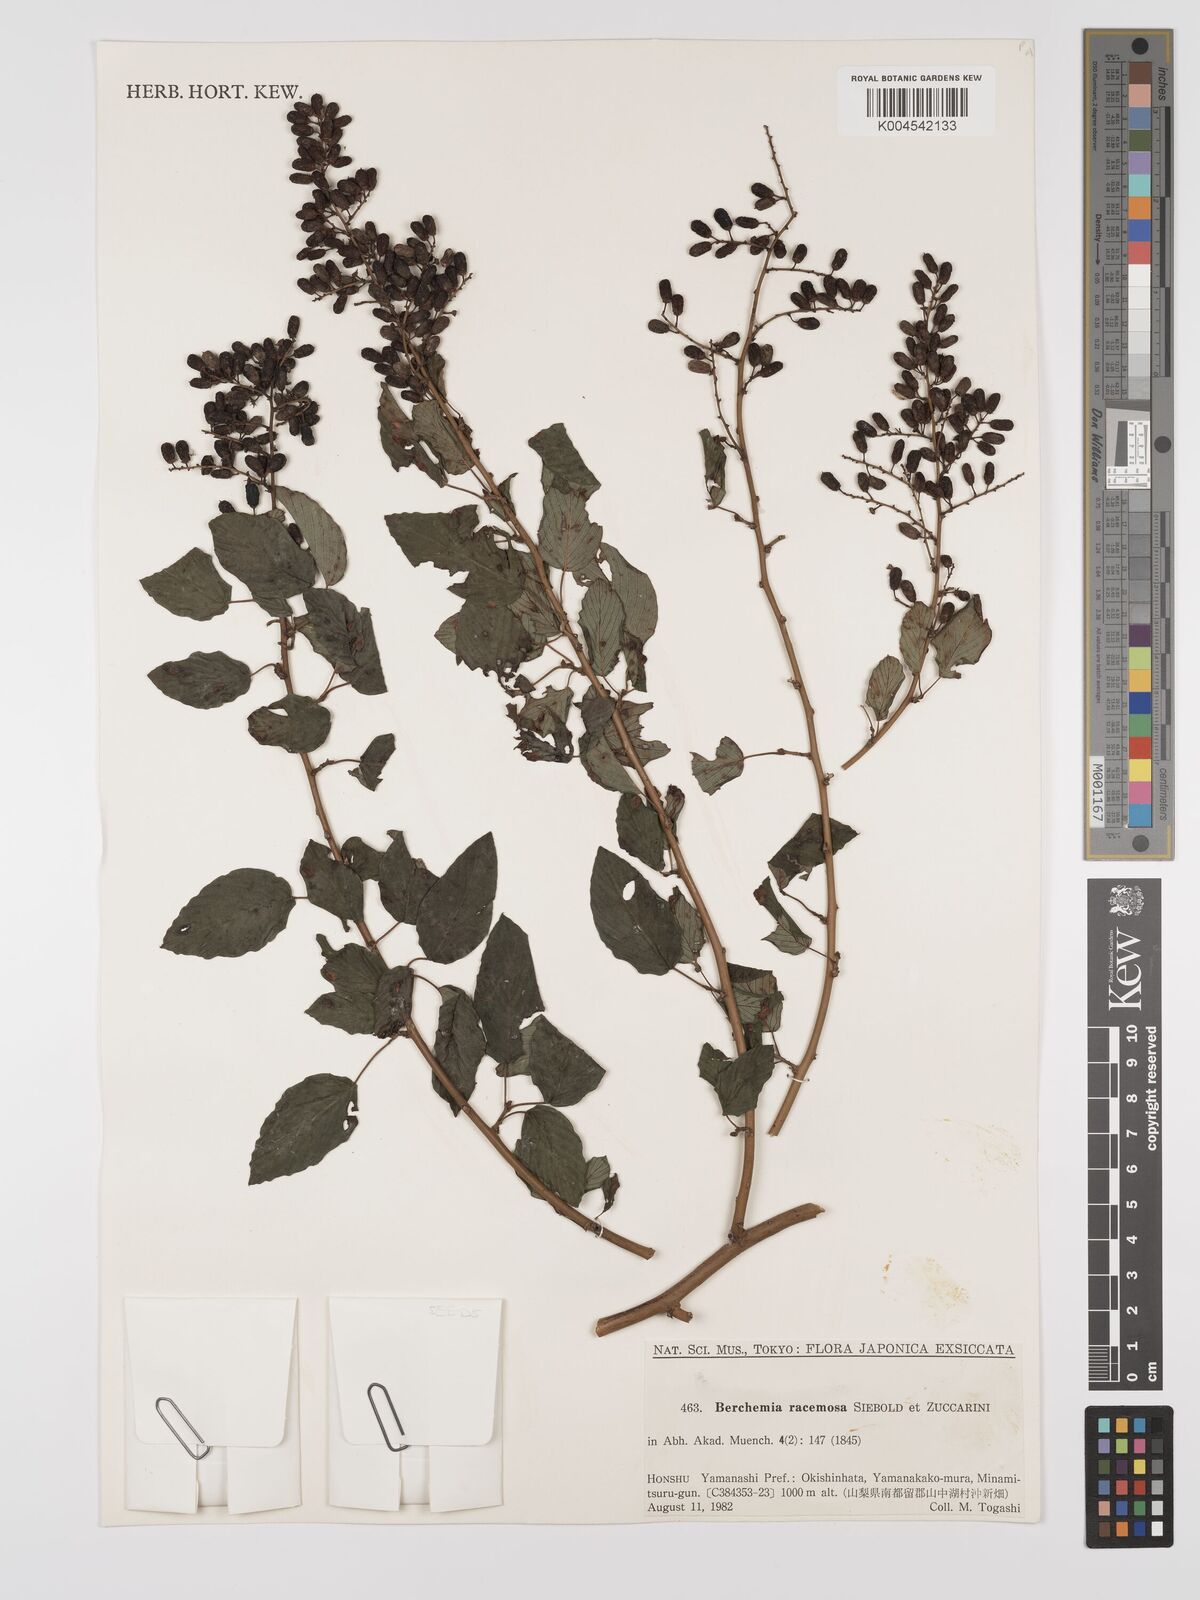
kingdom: Plantae
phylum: Tracheophyta
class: Magnoliopsida
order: Rosales
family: Rhamnaceae
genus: Berchemia
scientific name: Berchemia floribunda
